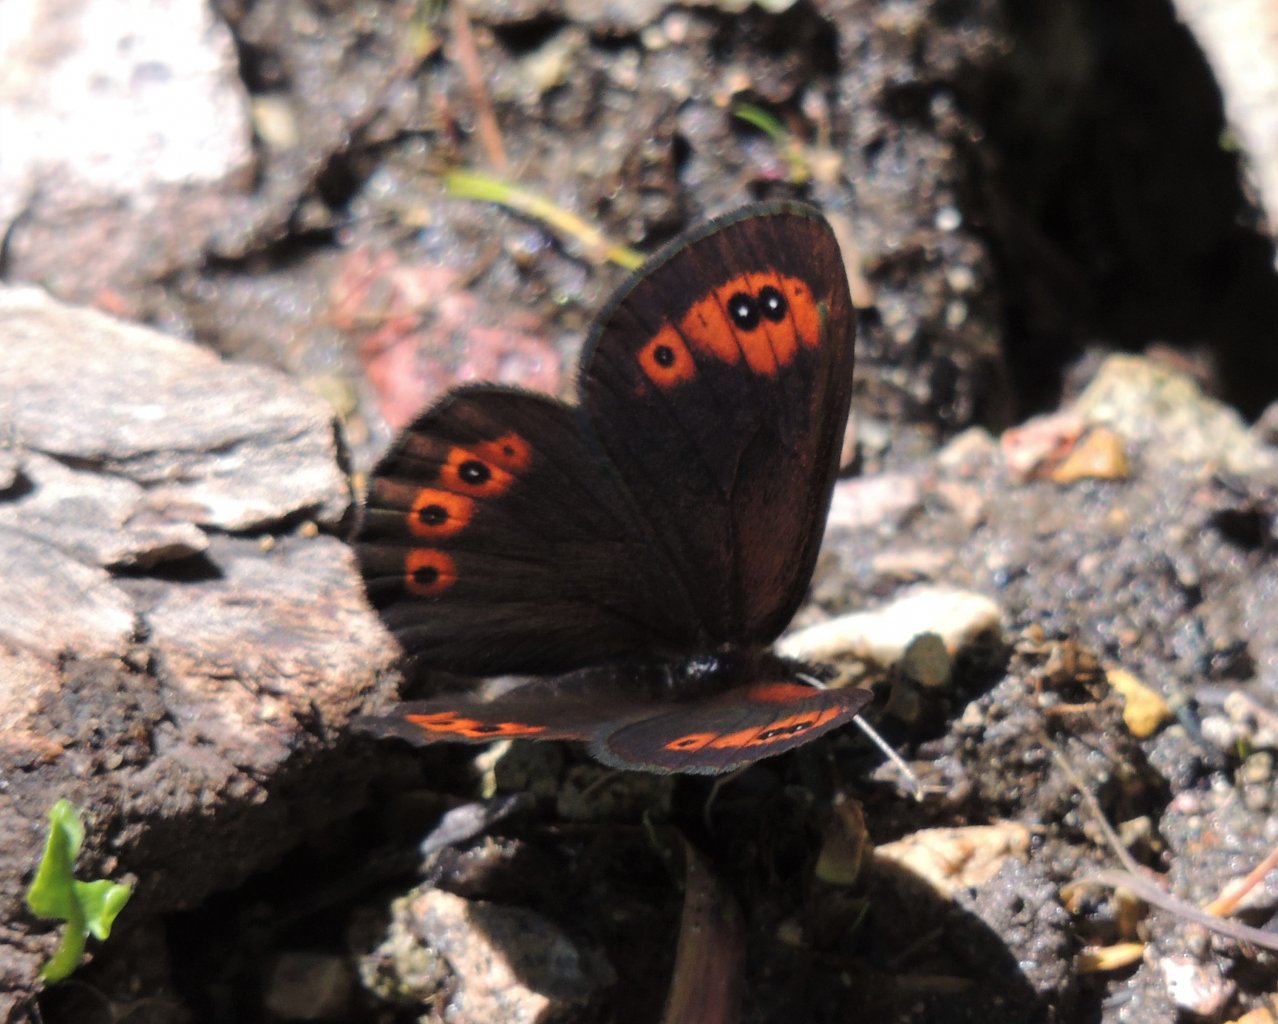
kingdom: Animalia
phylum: Arthropoda
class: Insecta
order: Lepidoptera
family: Nymphalidae
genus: Erebia
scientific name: Erebia epipsodea
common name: Common Alpine
